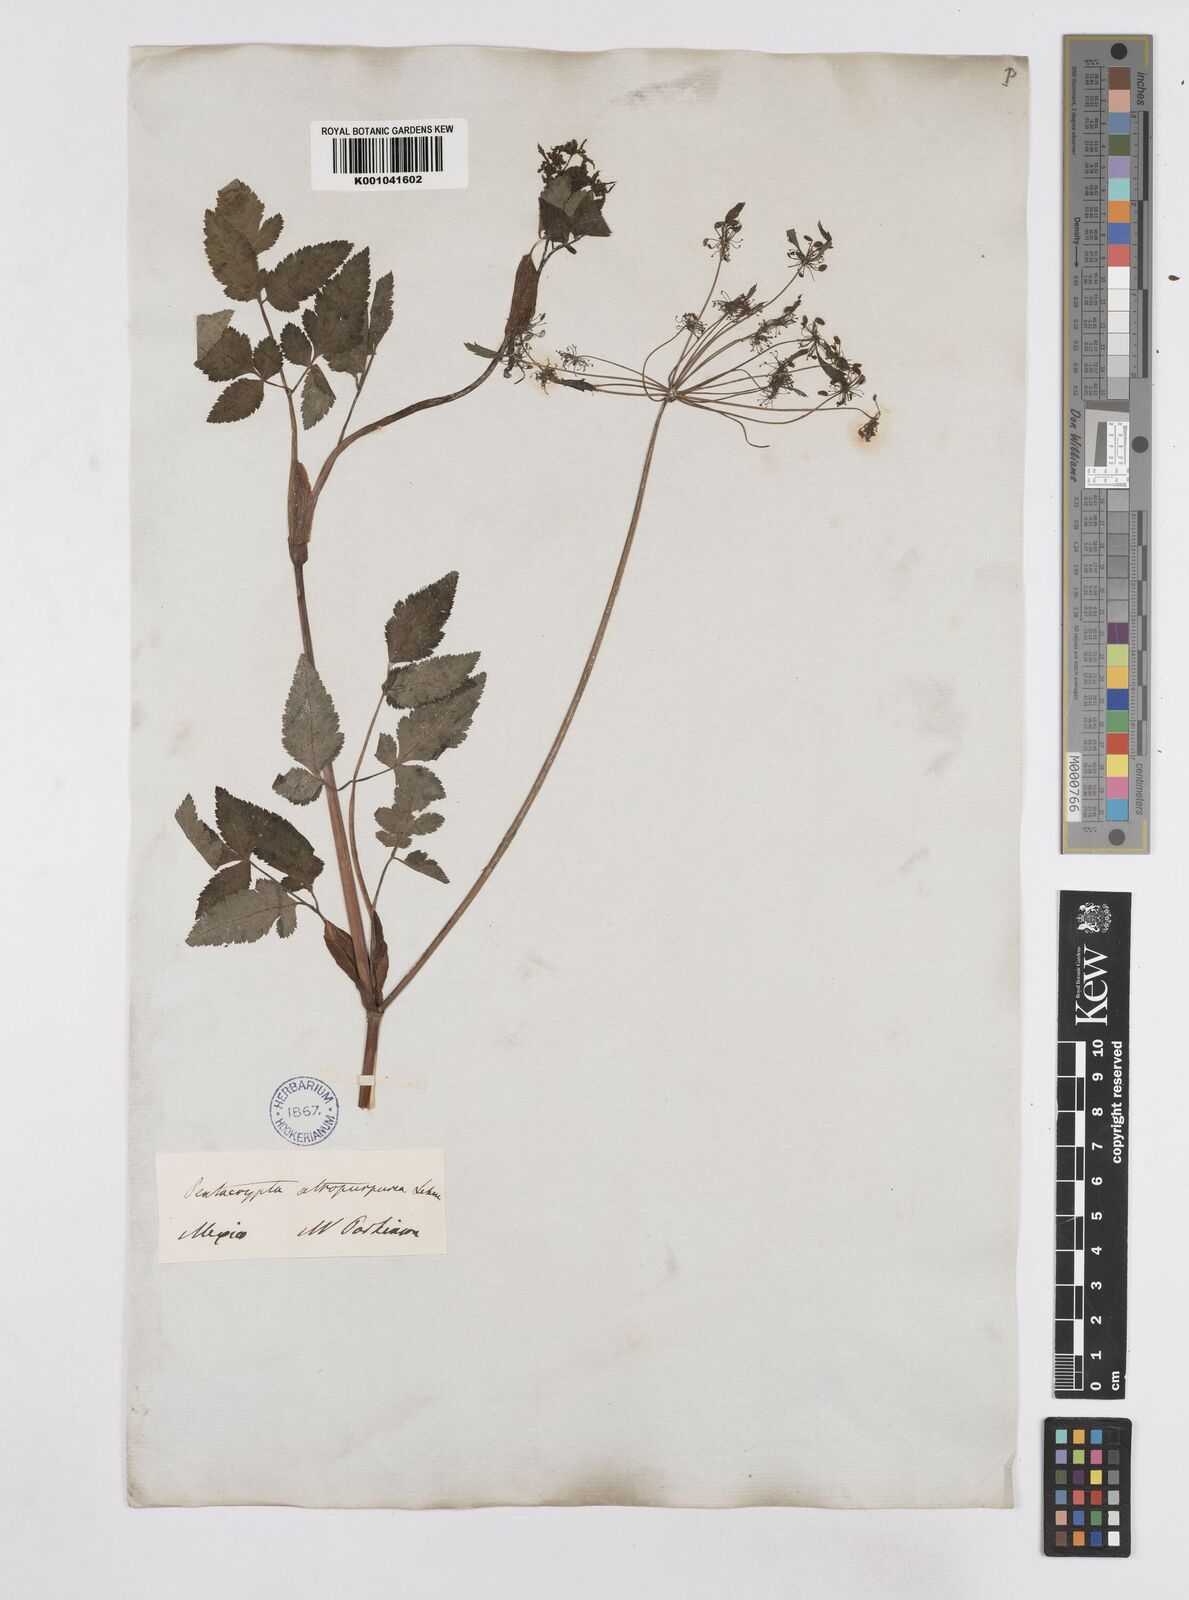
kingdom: Plantae
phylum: Tracheophyta
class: Magnoliopsida
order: Apiales
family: Apiaceae
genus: Arracacia
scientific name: Arracacia atropurpurea
